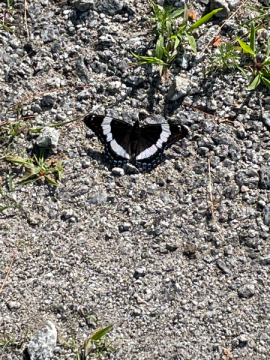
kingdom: Animalia
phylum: Arthropoda
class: Insecta
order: Lepidoptera
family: Nymphalidae
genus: Limenitis
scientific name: Limenitis arthemis
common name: Red-spotted Admiral
